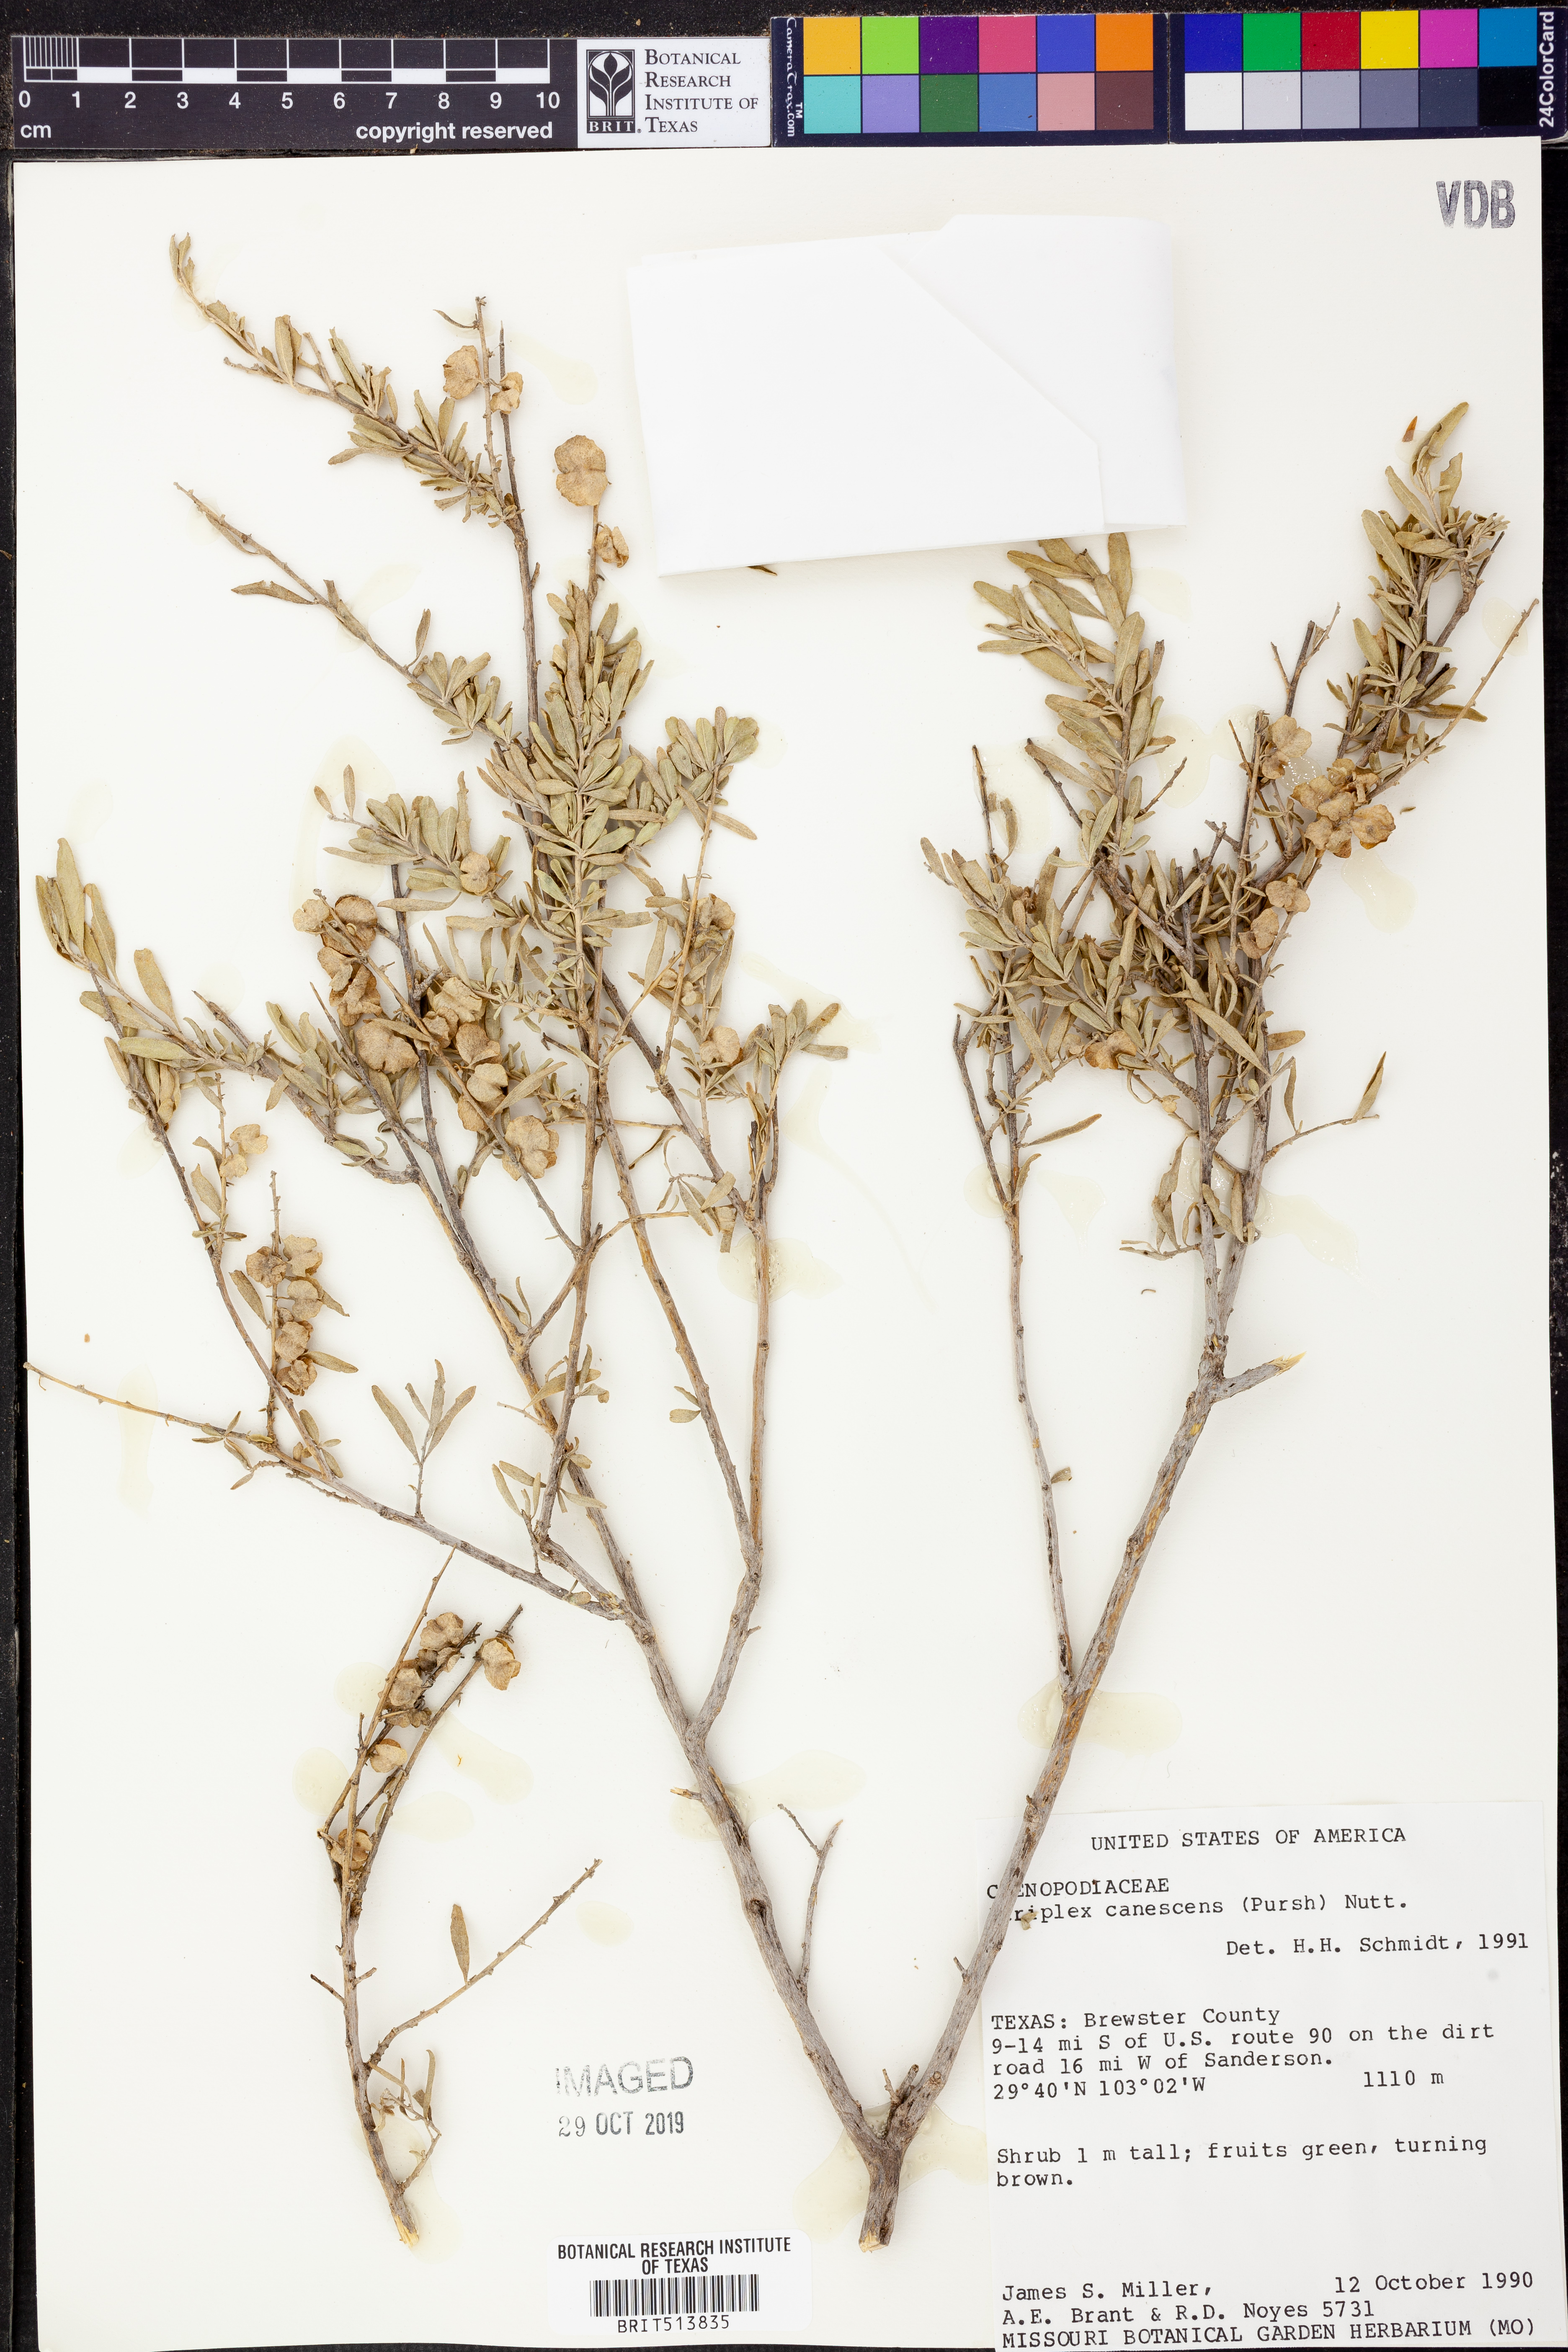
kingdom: Plantae
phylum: Tracheophyta
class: Magnoliopsida
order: Caryophyllales
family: Amaranthaceae
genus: Atriplex
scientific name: Atriplex canescens
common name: Four-wing saltbush
